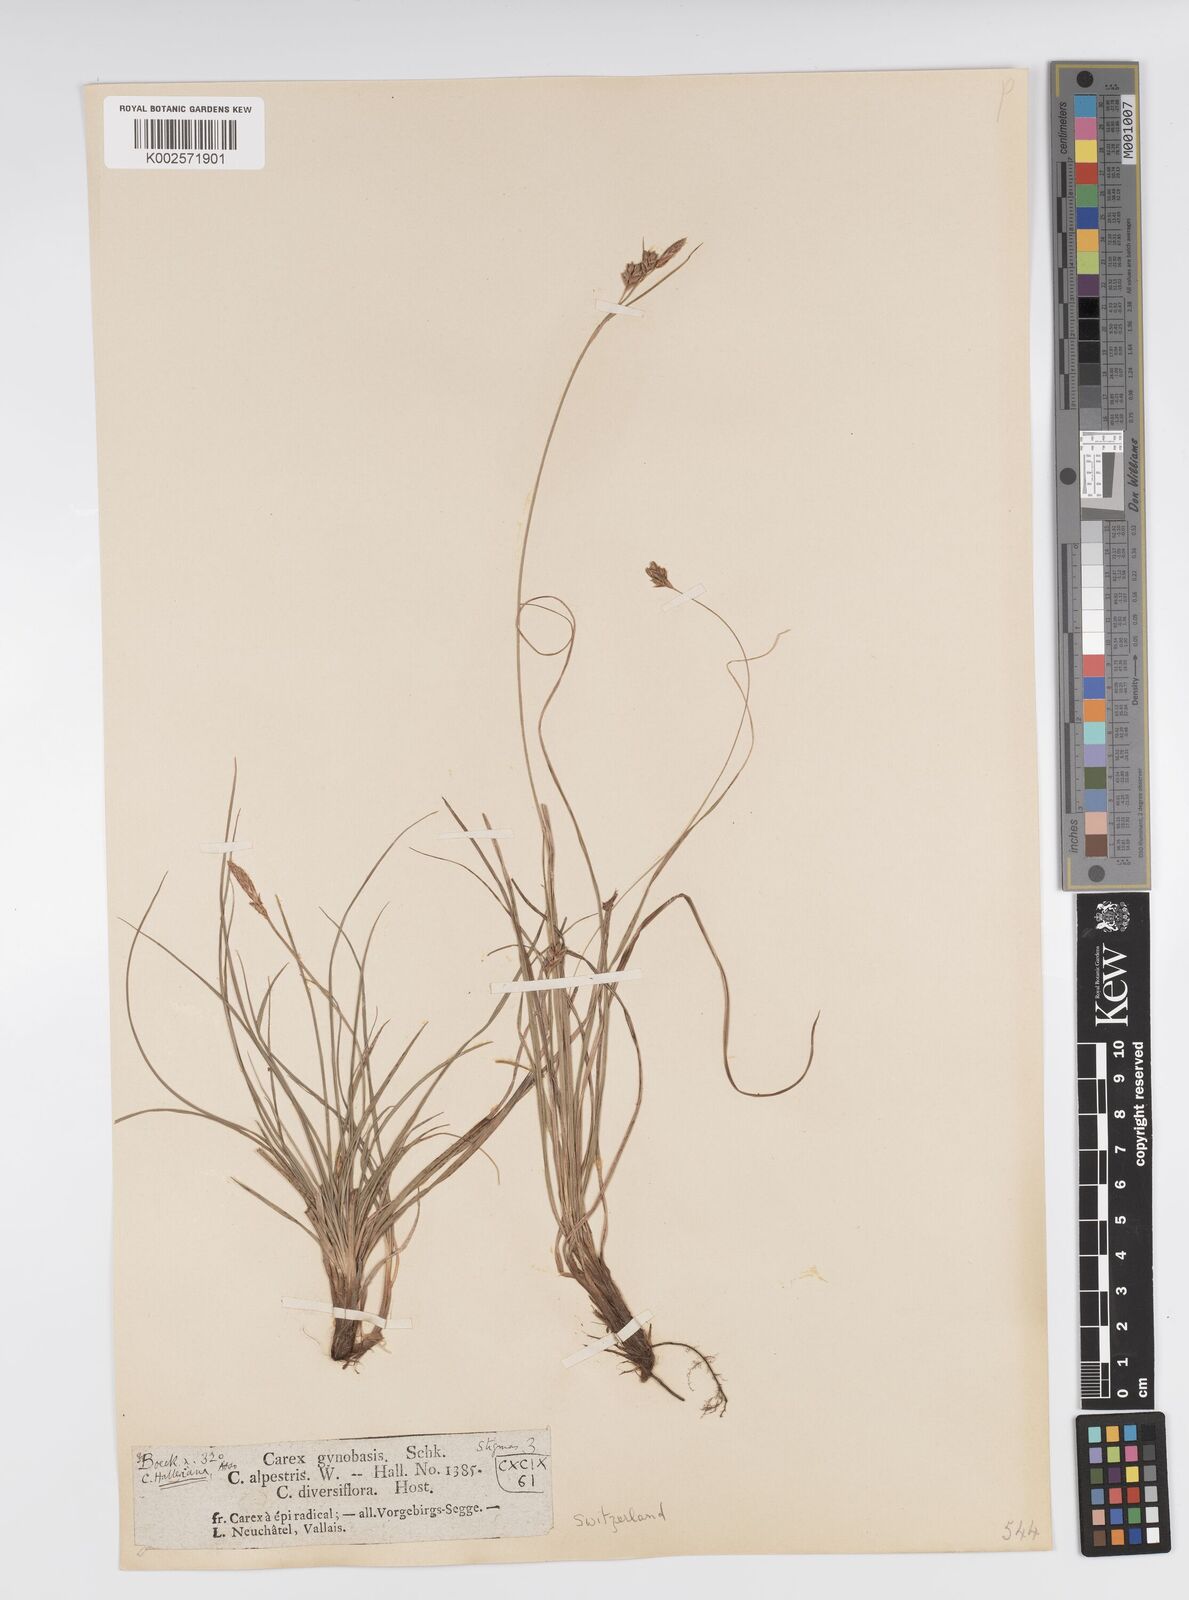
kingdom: Plantae
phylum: Tracheophyta
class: Liliopsida
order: Poales
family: Cyperaceae
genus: Carex
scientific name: Carex halleriana
